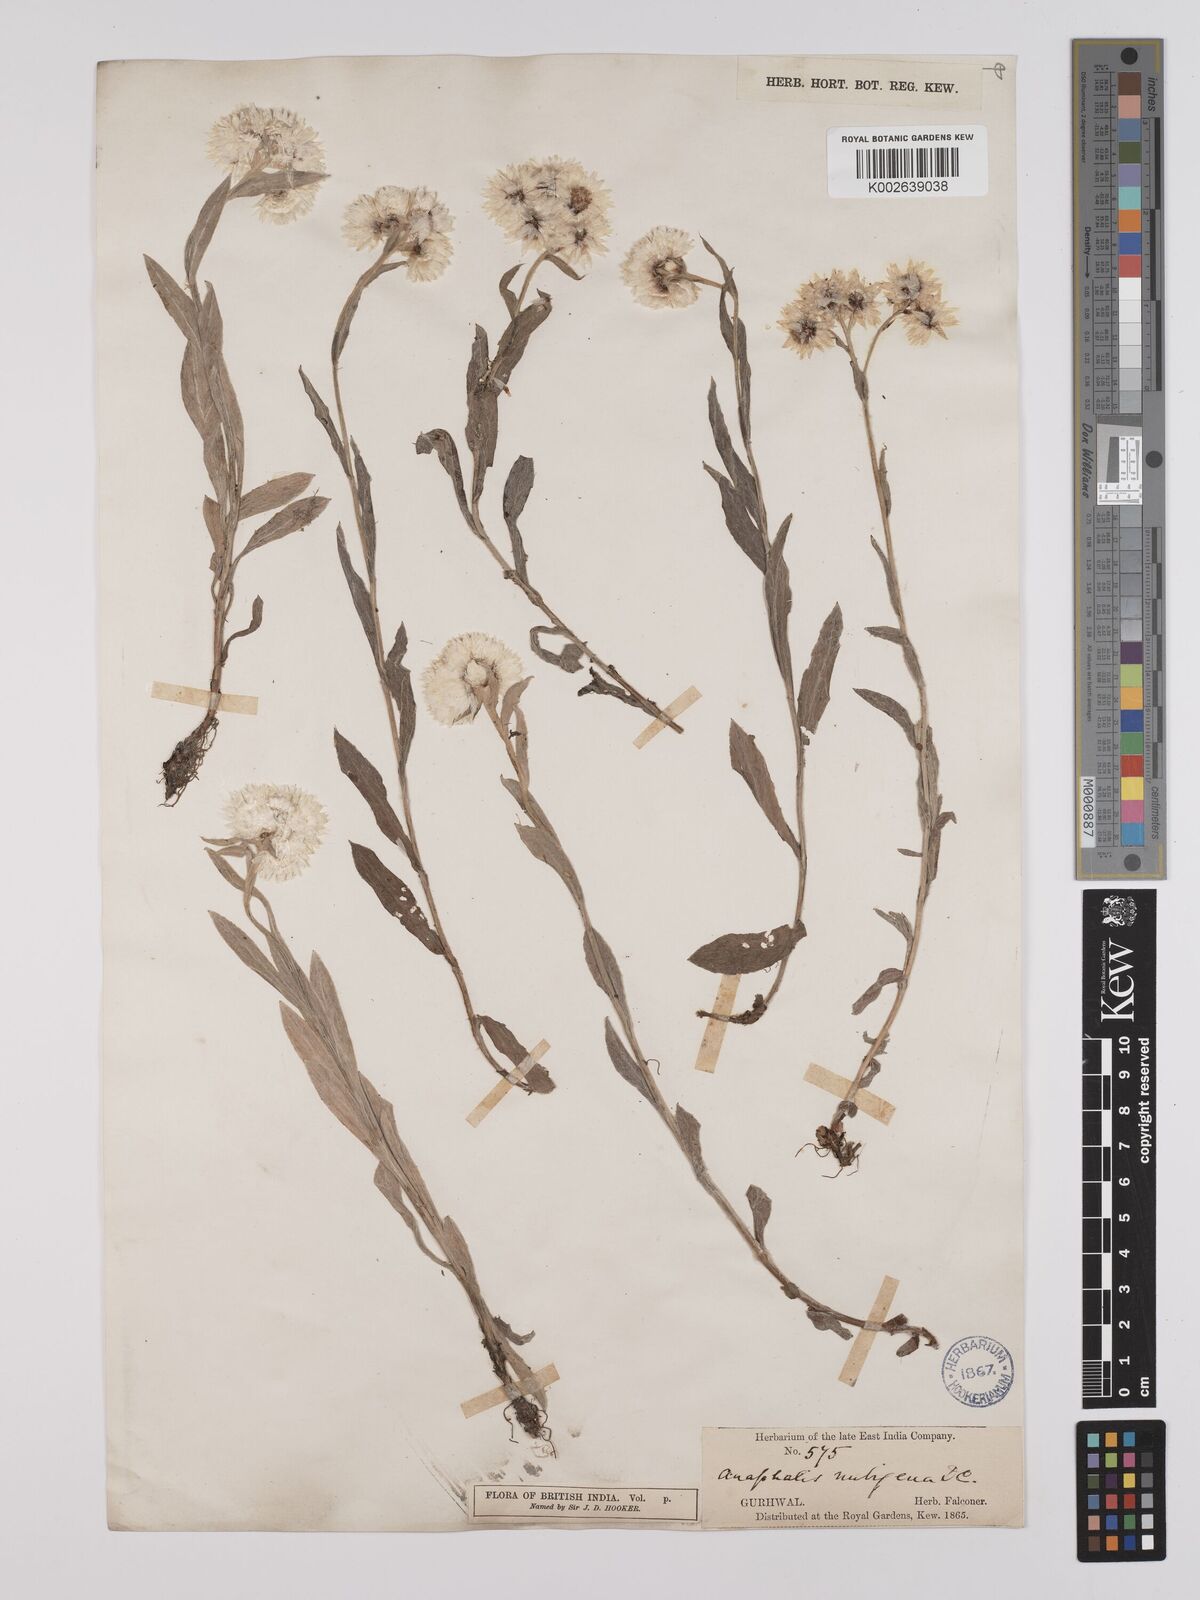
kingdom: Plantae
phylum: Tracheophyta
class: Magnoliopsida
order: Asterales
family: Asteraceae
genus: Anaphalis
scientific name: Anaphalis nepalensis
